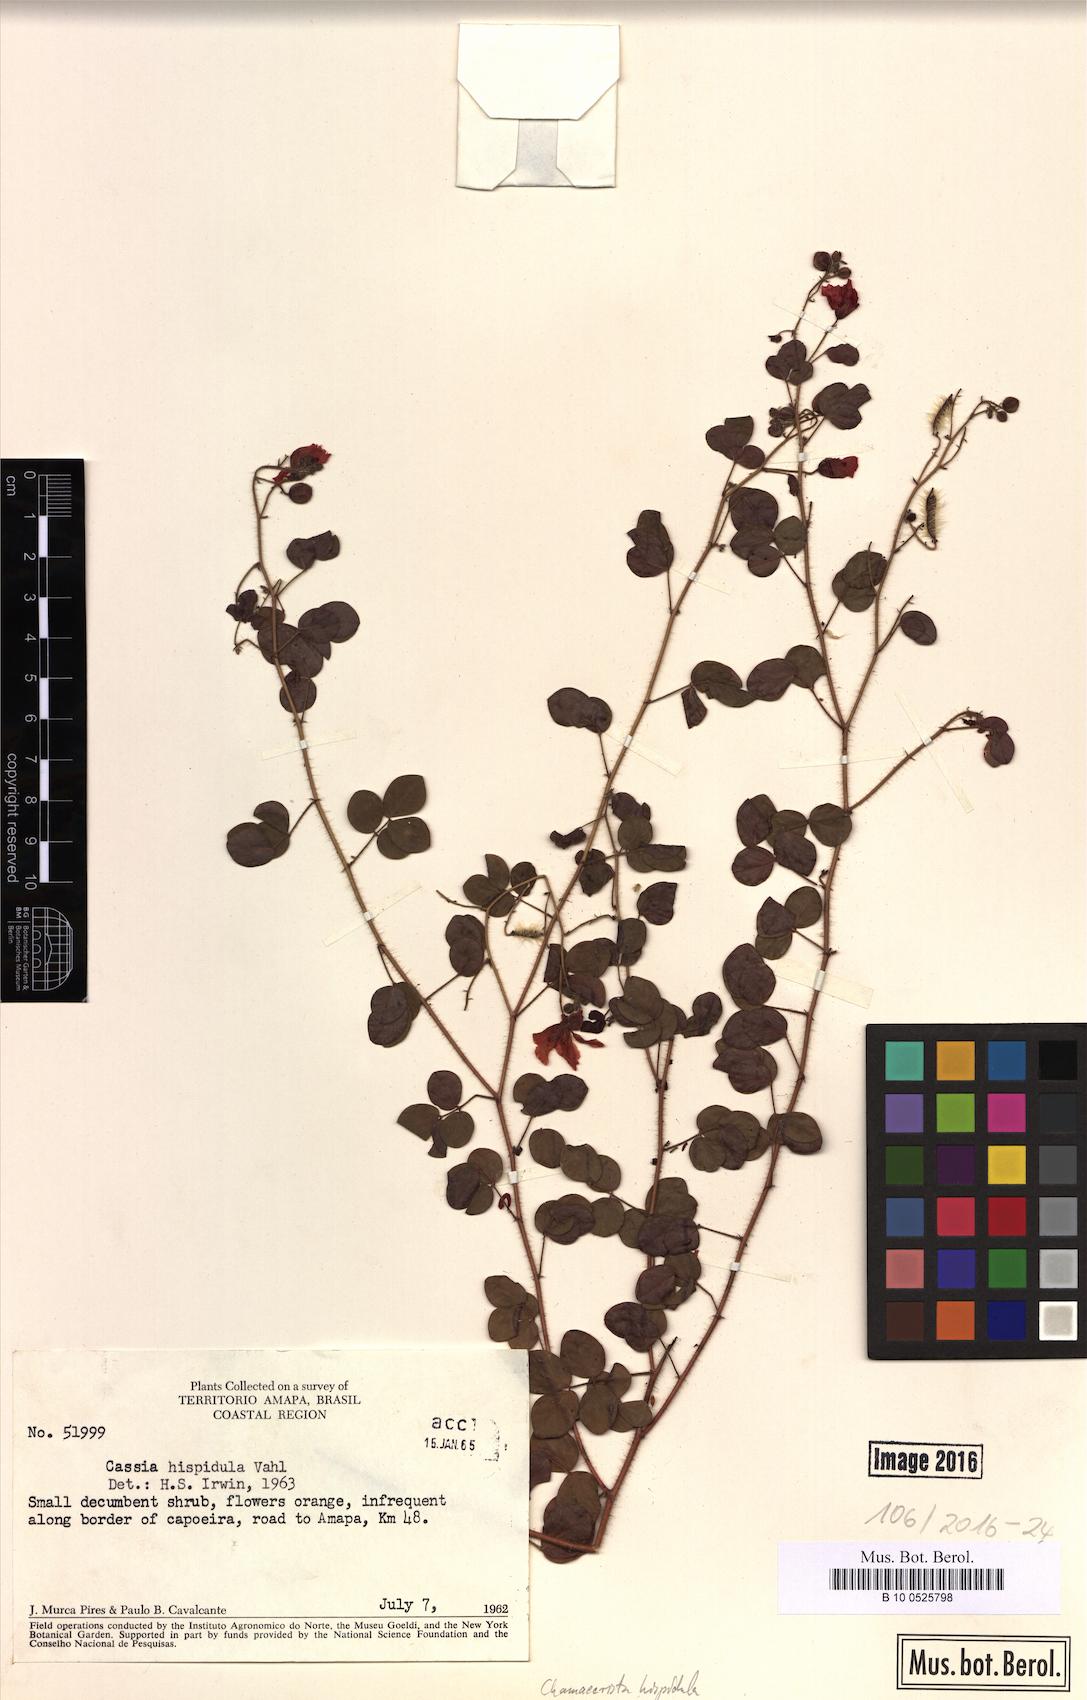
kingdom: Plantae
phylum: Tracheophyta
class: Magnoliopsida
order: Fabales
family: Fabaceae
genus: Chamaecrista
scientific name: Chamaecrista hispidula
